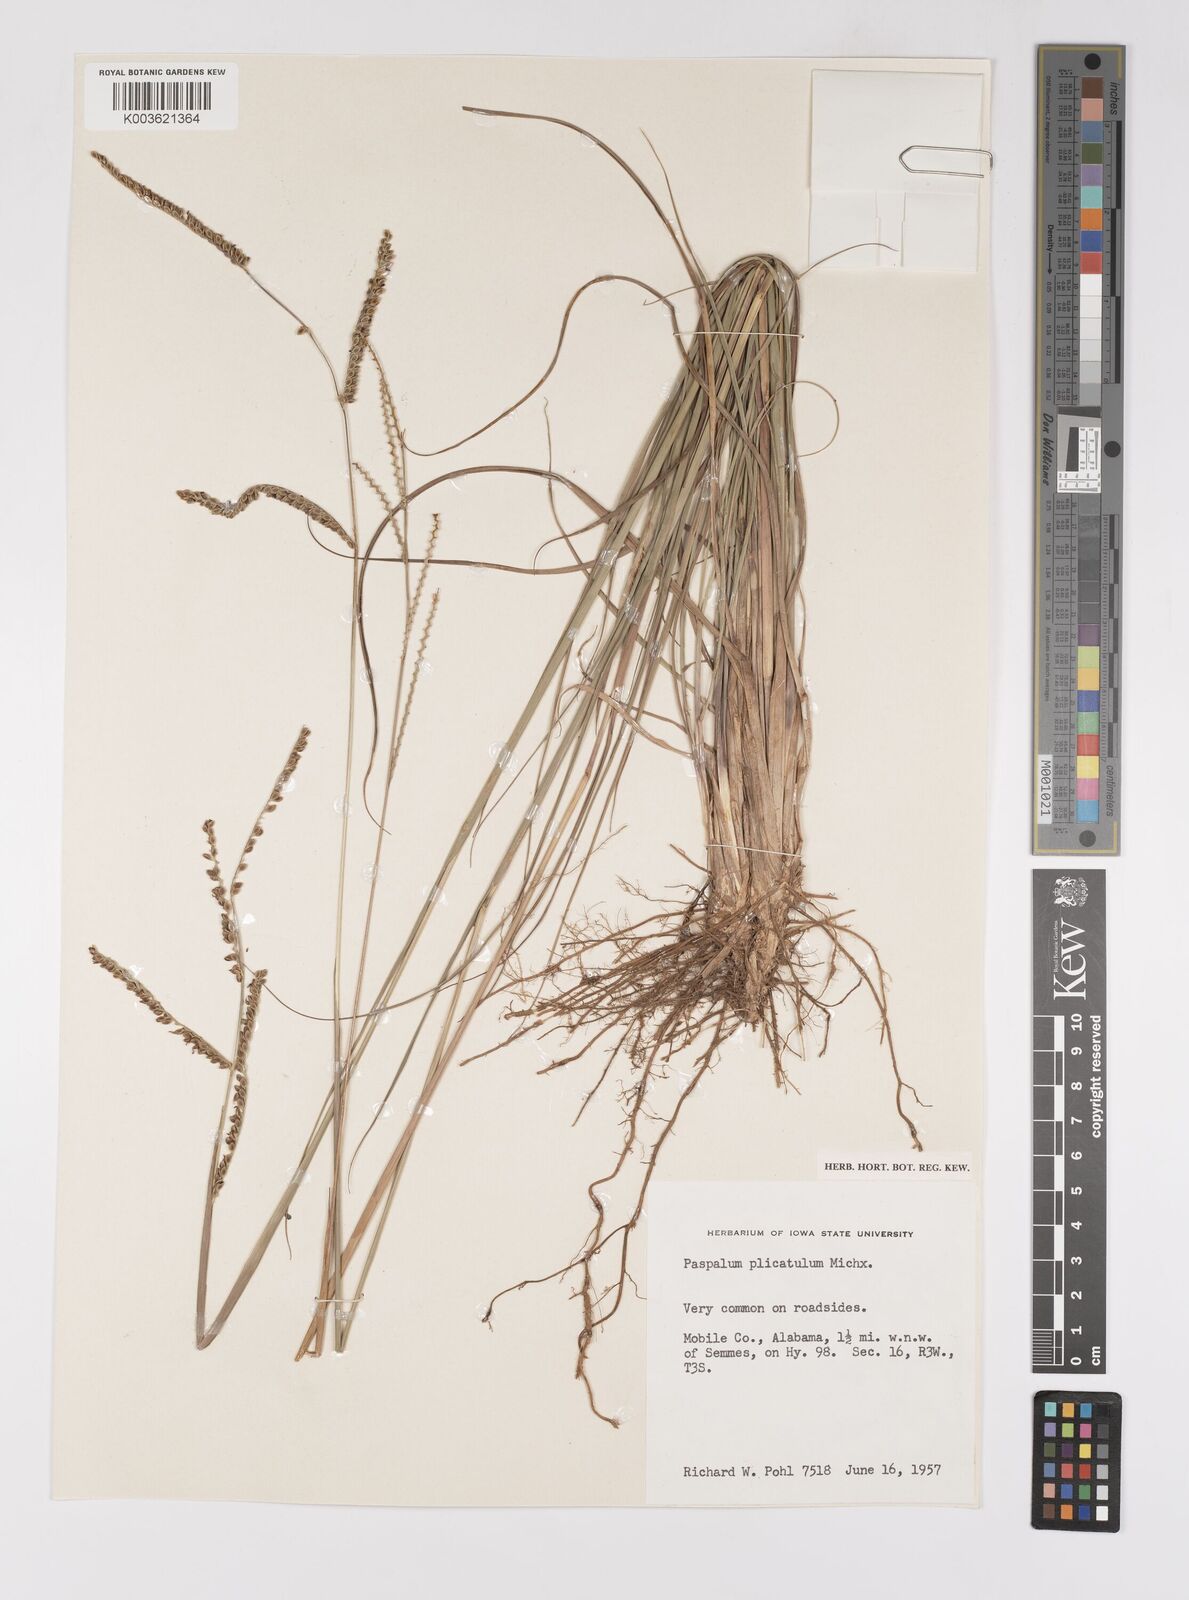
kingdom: Plantae
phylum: Tracheophyta
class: Liliopsida
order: Poales
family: Poaceae
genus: Paspalum
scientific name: Paspalum plicatulum
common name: Top paspalum
